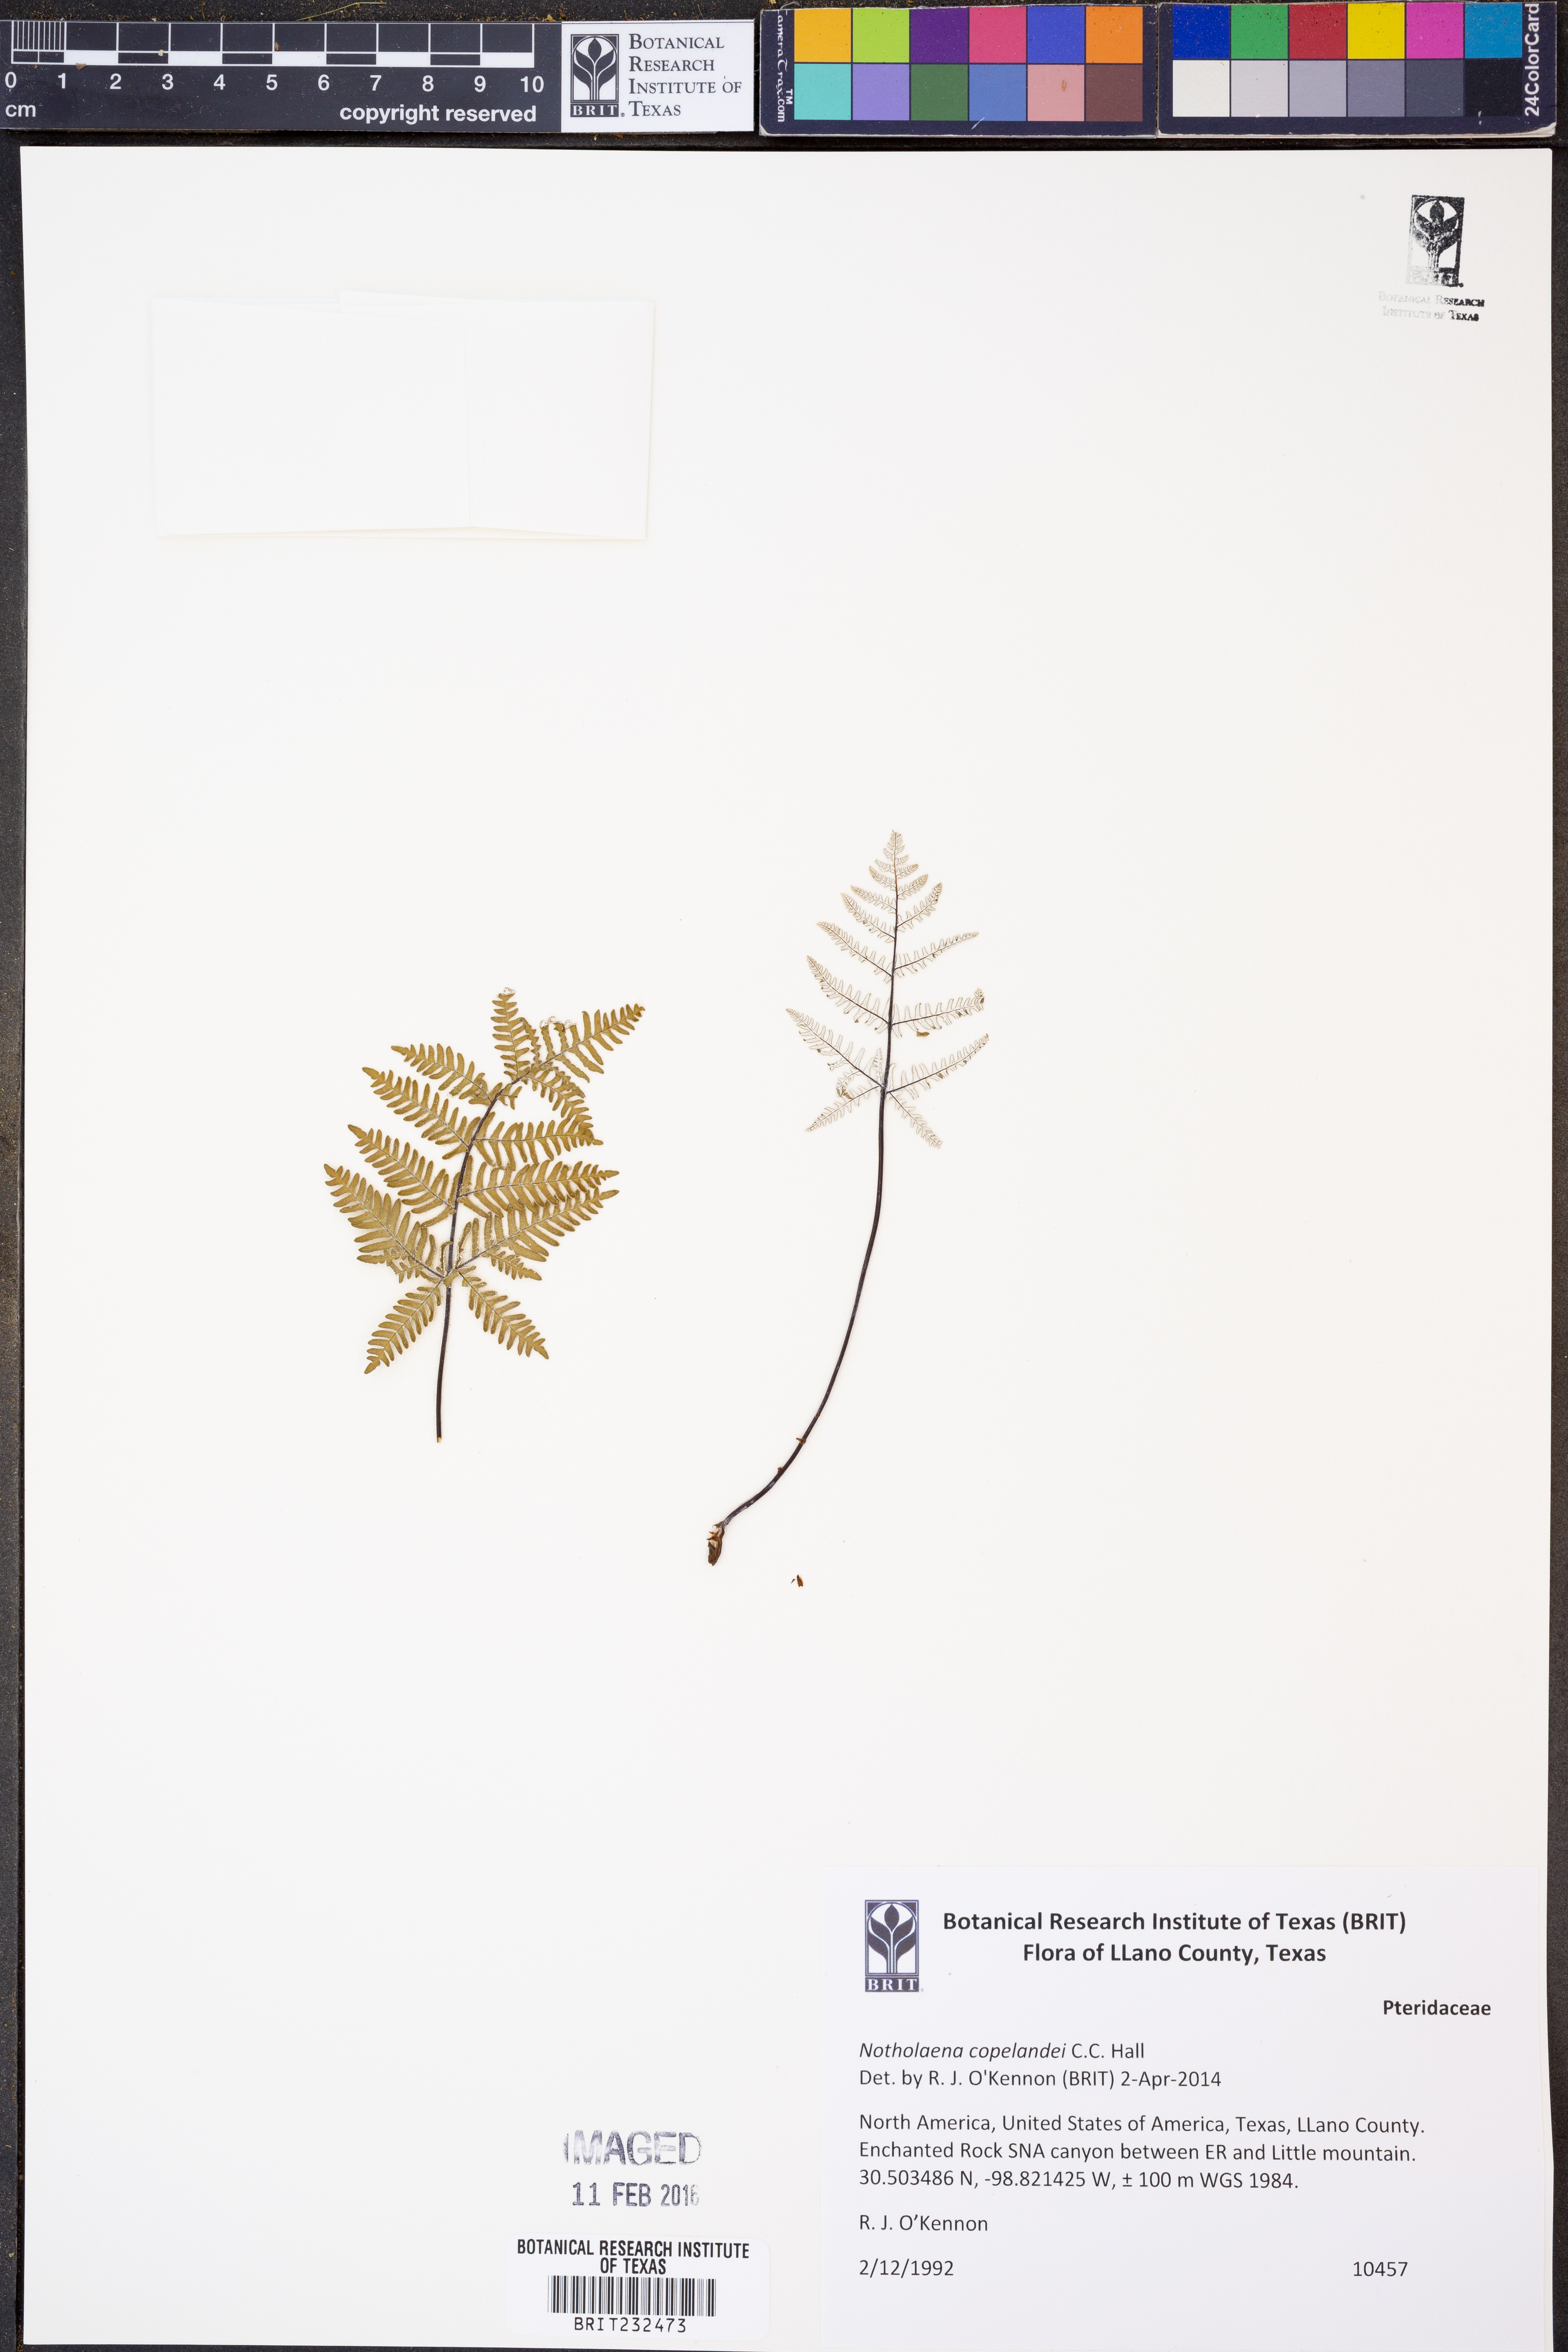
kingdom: Plantae
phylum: Tracheophyta
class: Polypodiopsida
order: Polypodiales
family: Pteridaceae
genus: Notholaena
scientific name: Notholaena candida
